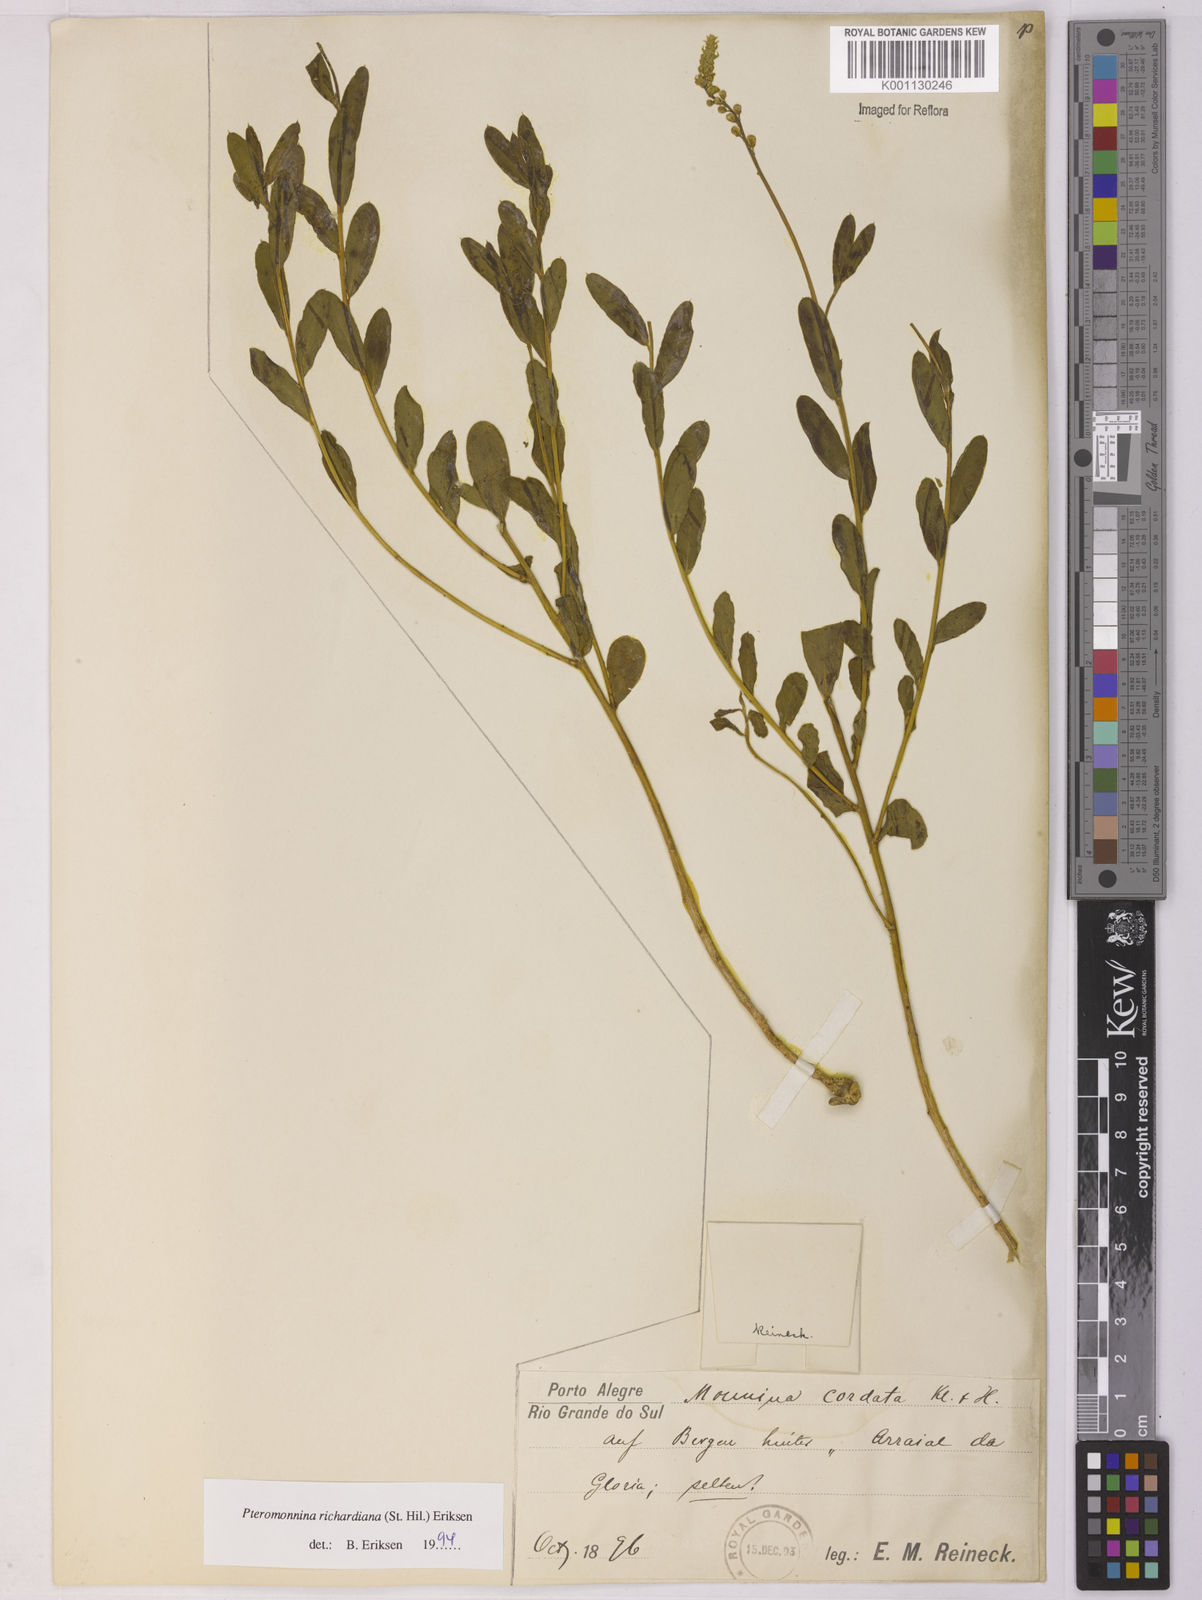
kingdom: Plantae
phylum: Tracheophyta
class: Magnoliopsida
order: Fabales
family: Polygalaceae
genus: Monnina
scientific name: Monnina richardiana
